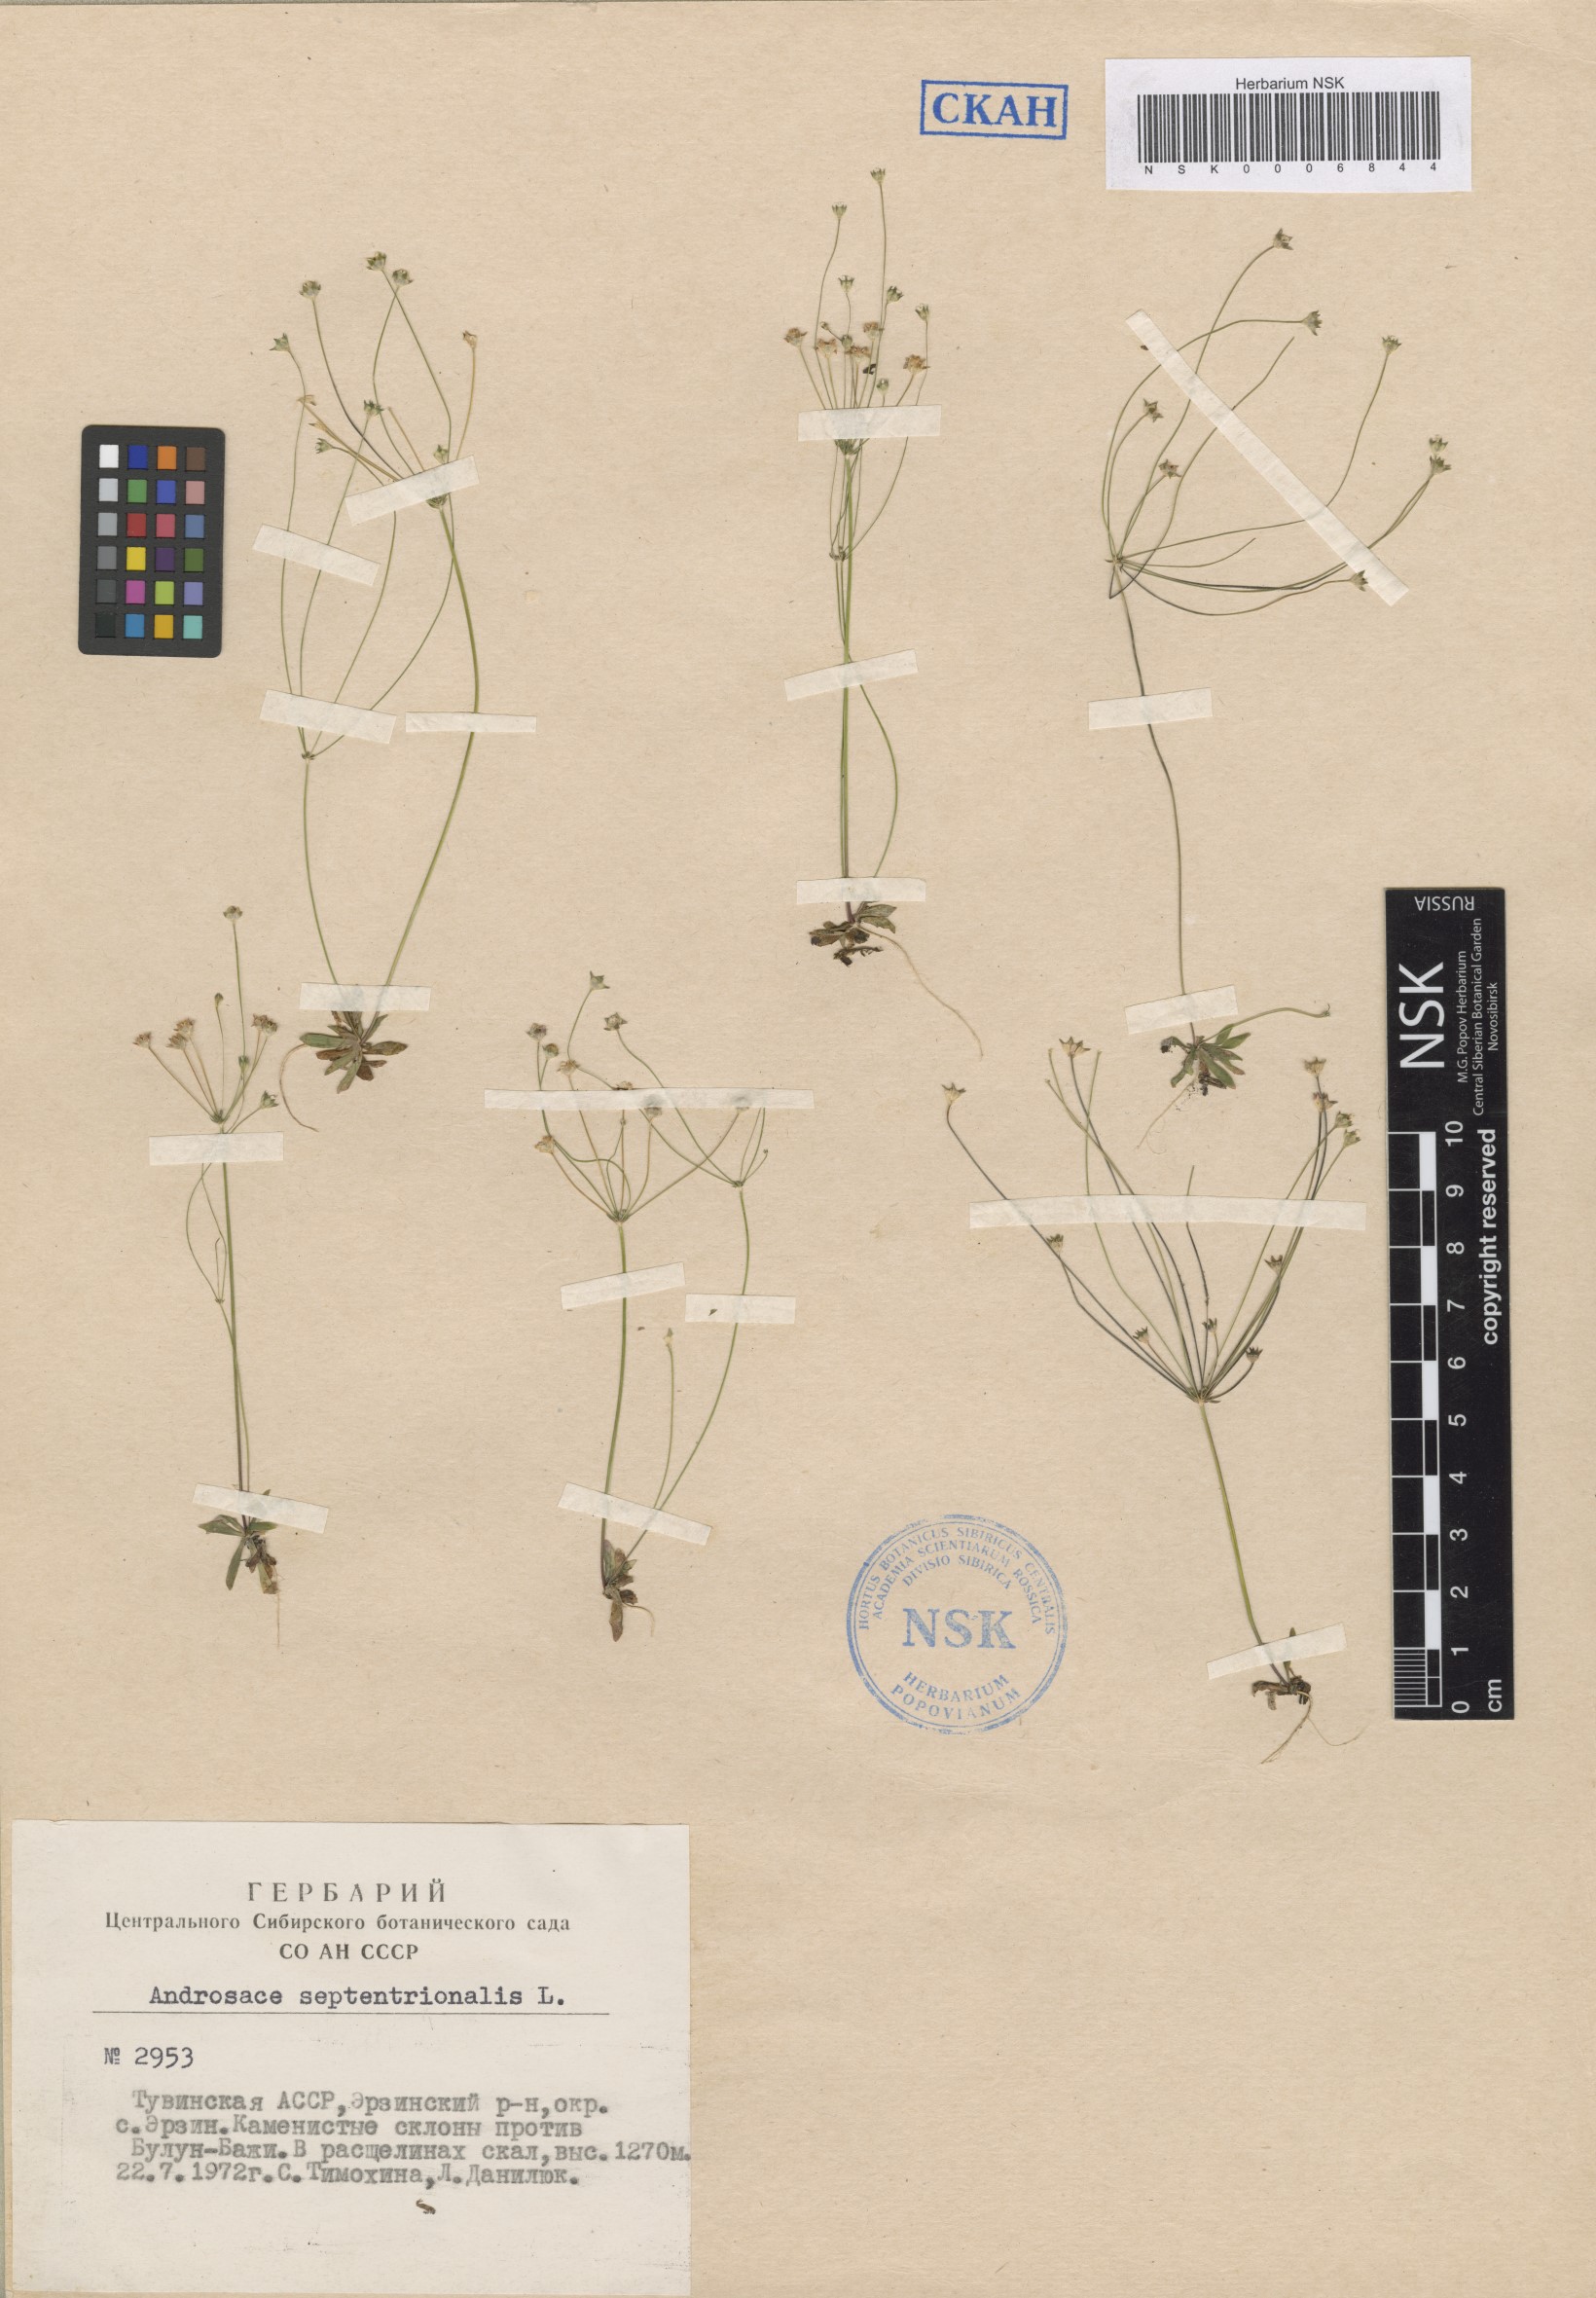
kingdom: Plantae
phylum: Tracheophyta
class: Magnoliopsida
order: Ericales
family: Primulaceae
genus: Androsace
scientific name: Androsace septentrionalis
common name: Hairy northern fairy-candelabra
